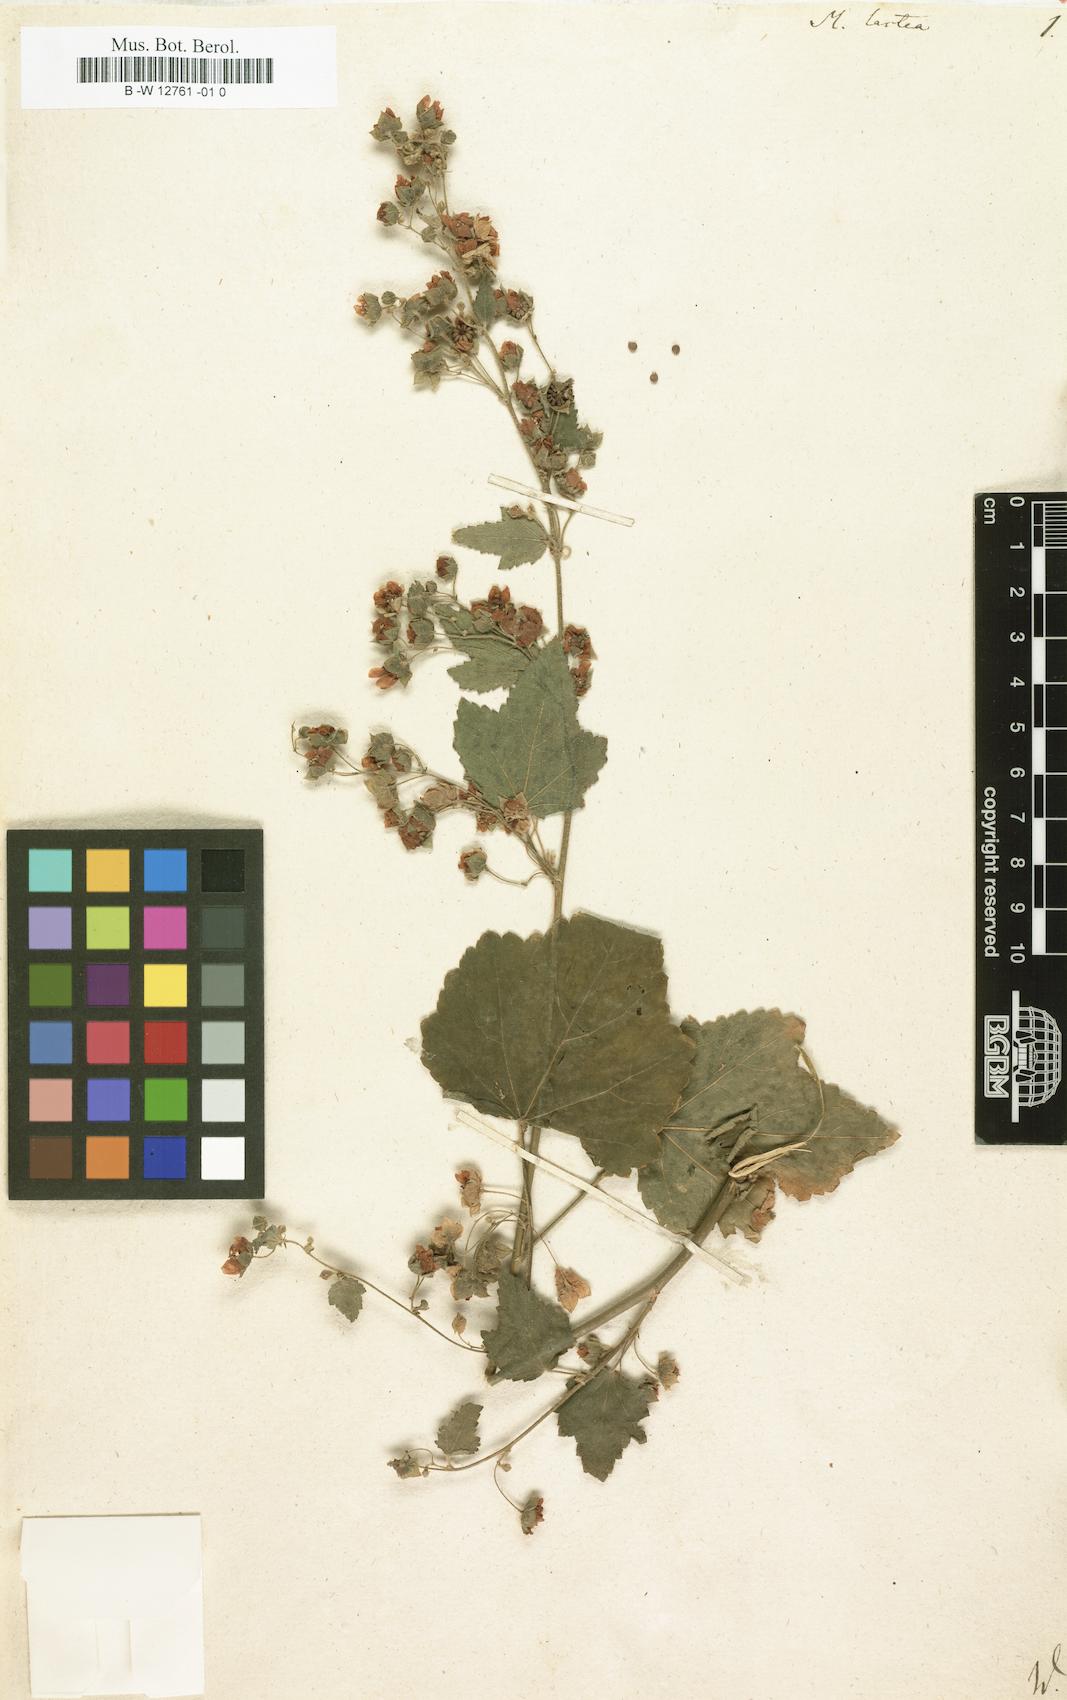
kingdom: Plantae
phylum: Tracheophyta
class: Magnoliopsida
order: Malvales
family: Malvaceae
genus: Kearnemalvastrum
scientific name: Kearnemalvastrum lacteum
